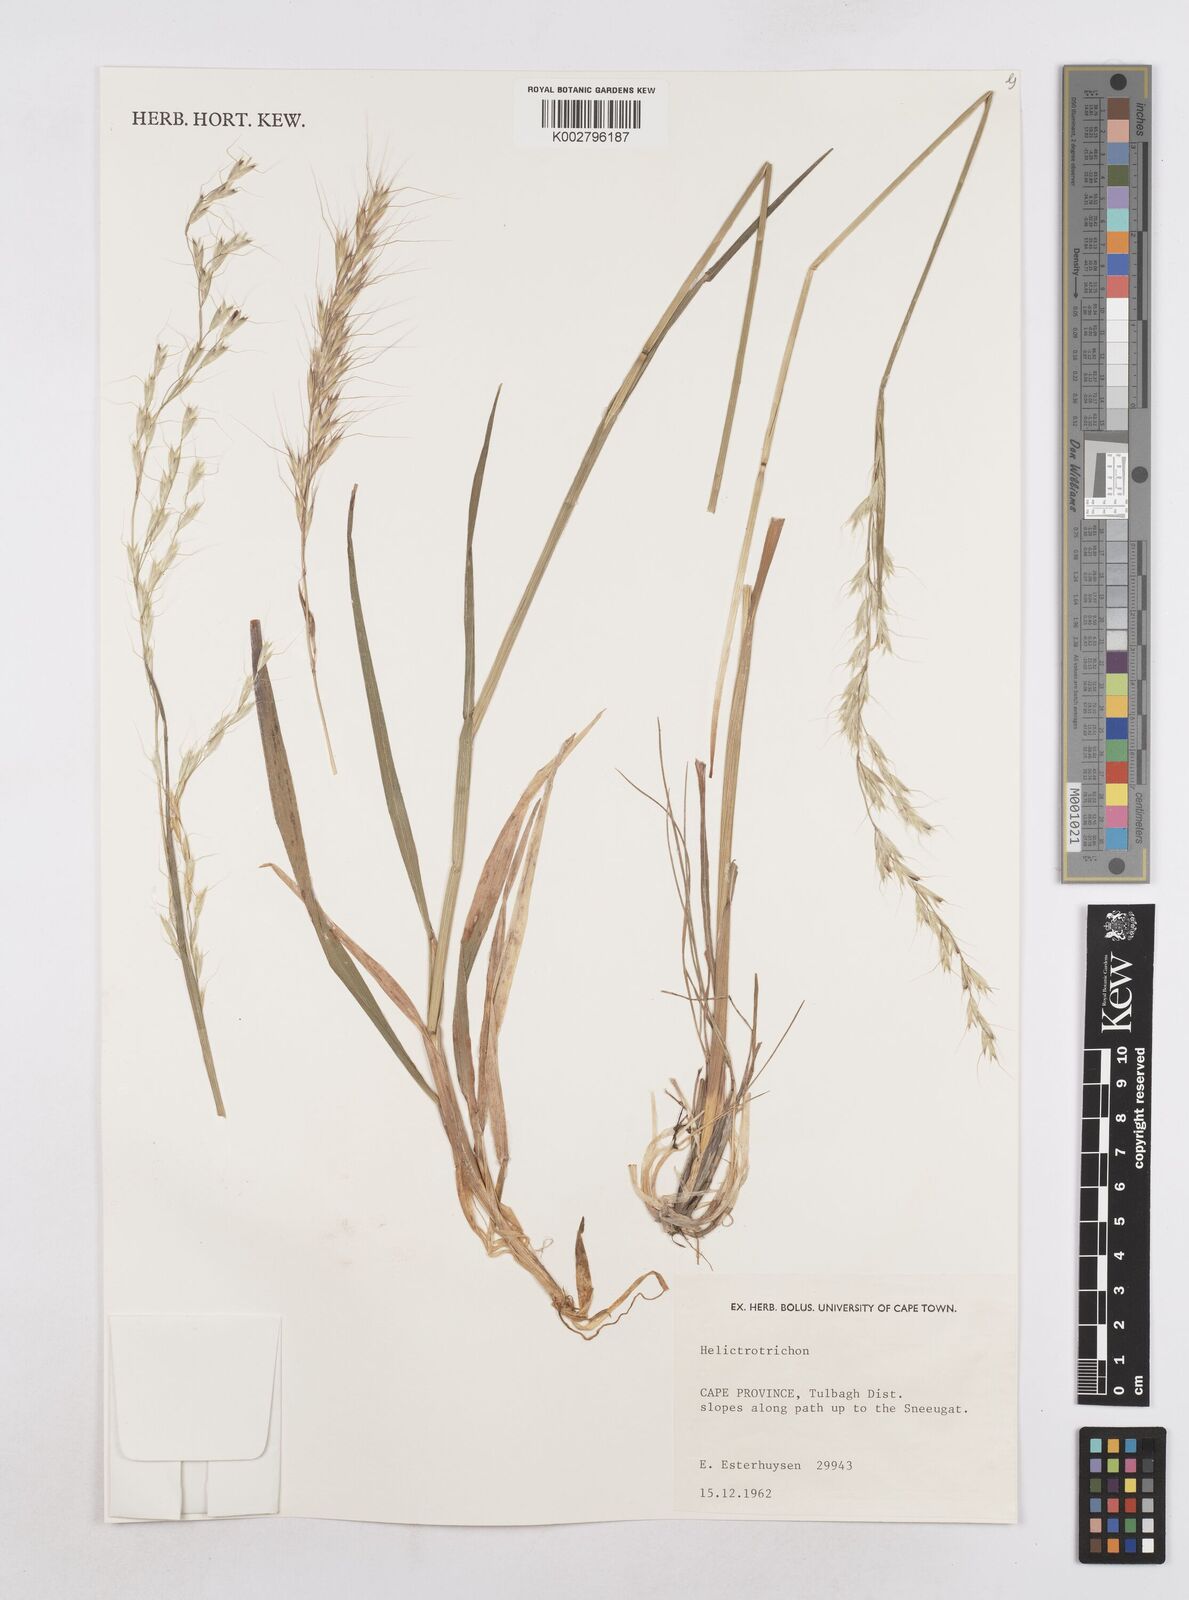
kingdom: Plantae
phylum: Tracheophyta
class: Liliopsida
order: Poales
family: Poaceae
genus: Helictotrichon
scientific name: Helictotrichon
